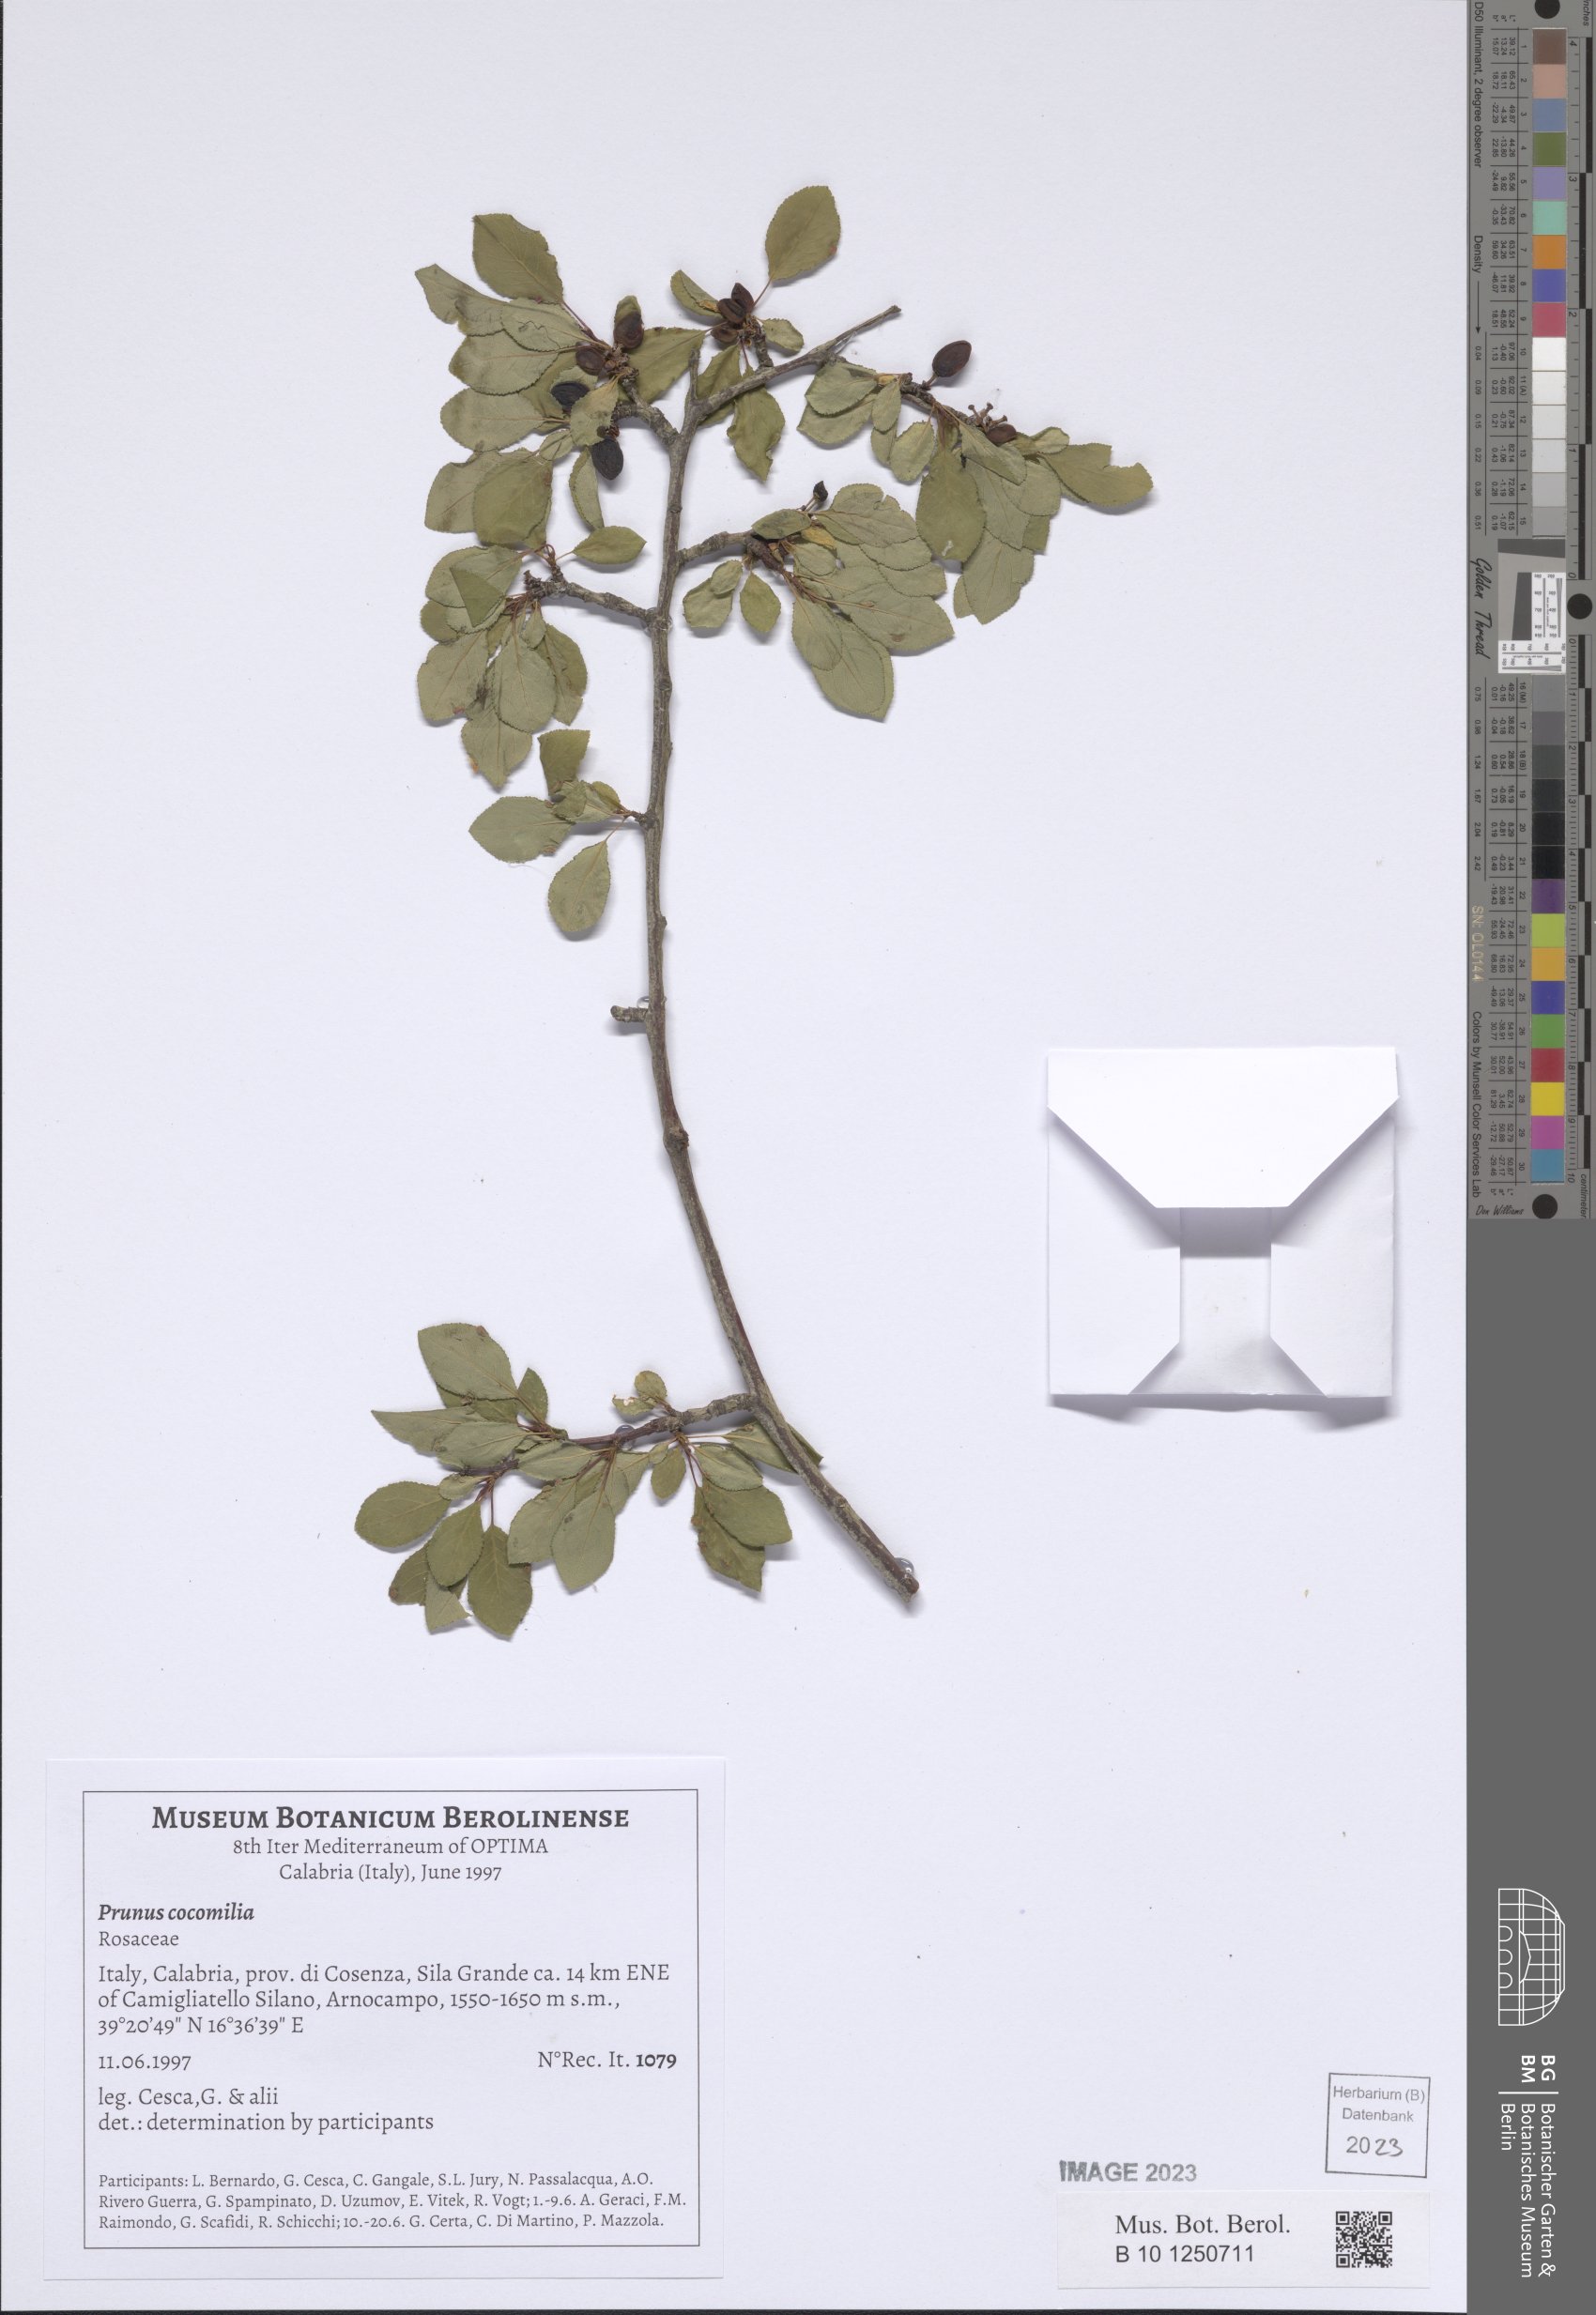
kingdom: Plantae
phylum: Tracheophyta
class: Magnoliopsida
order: Rosales
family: Rosaceae
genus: Prunus
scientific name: Prunus cocomilia
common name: Italian plum
